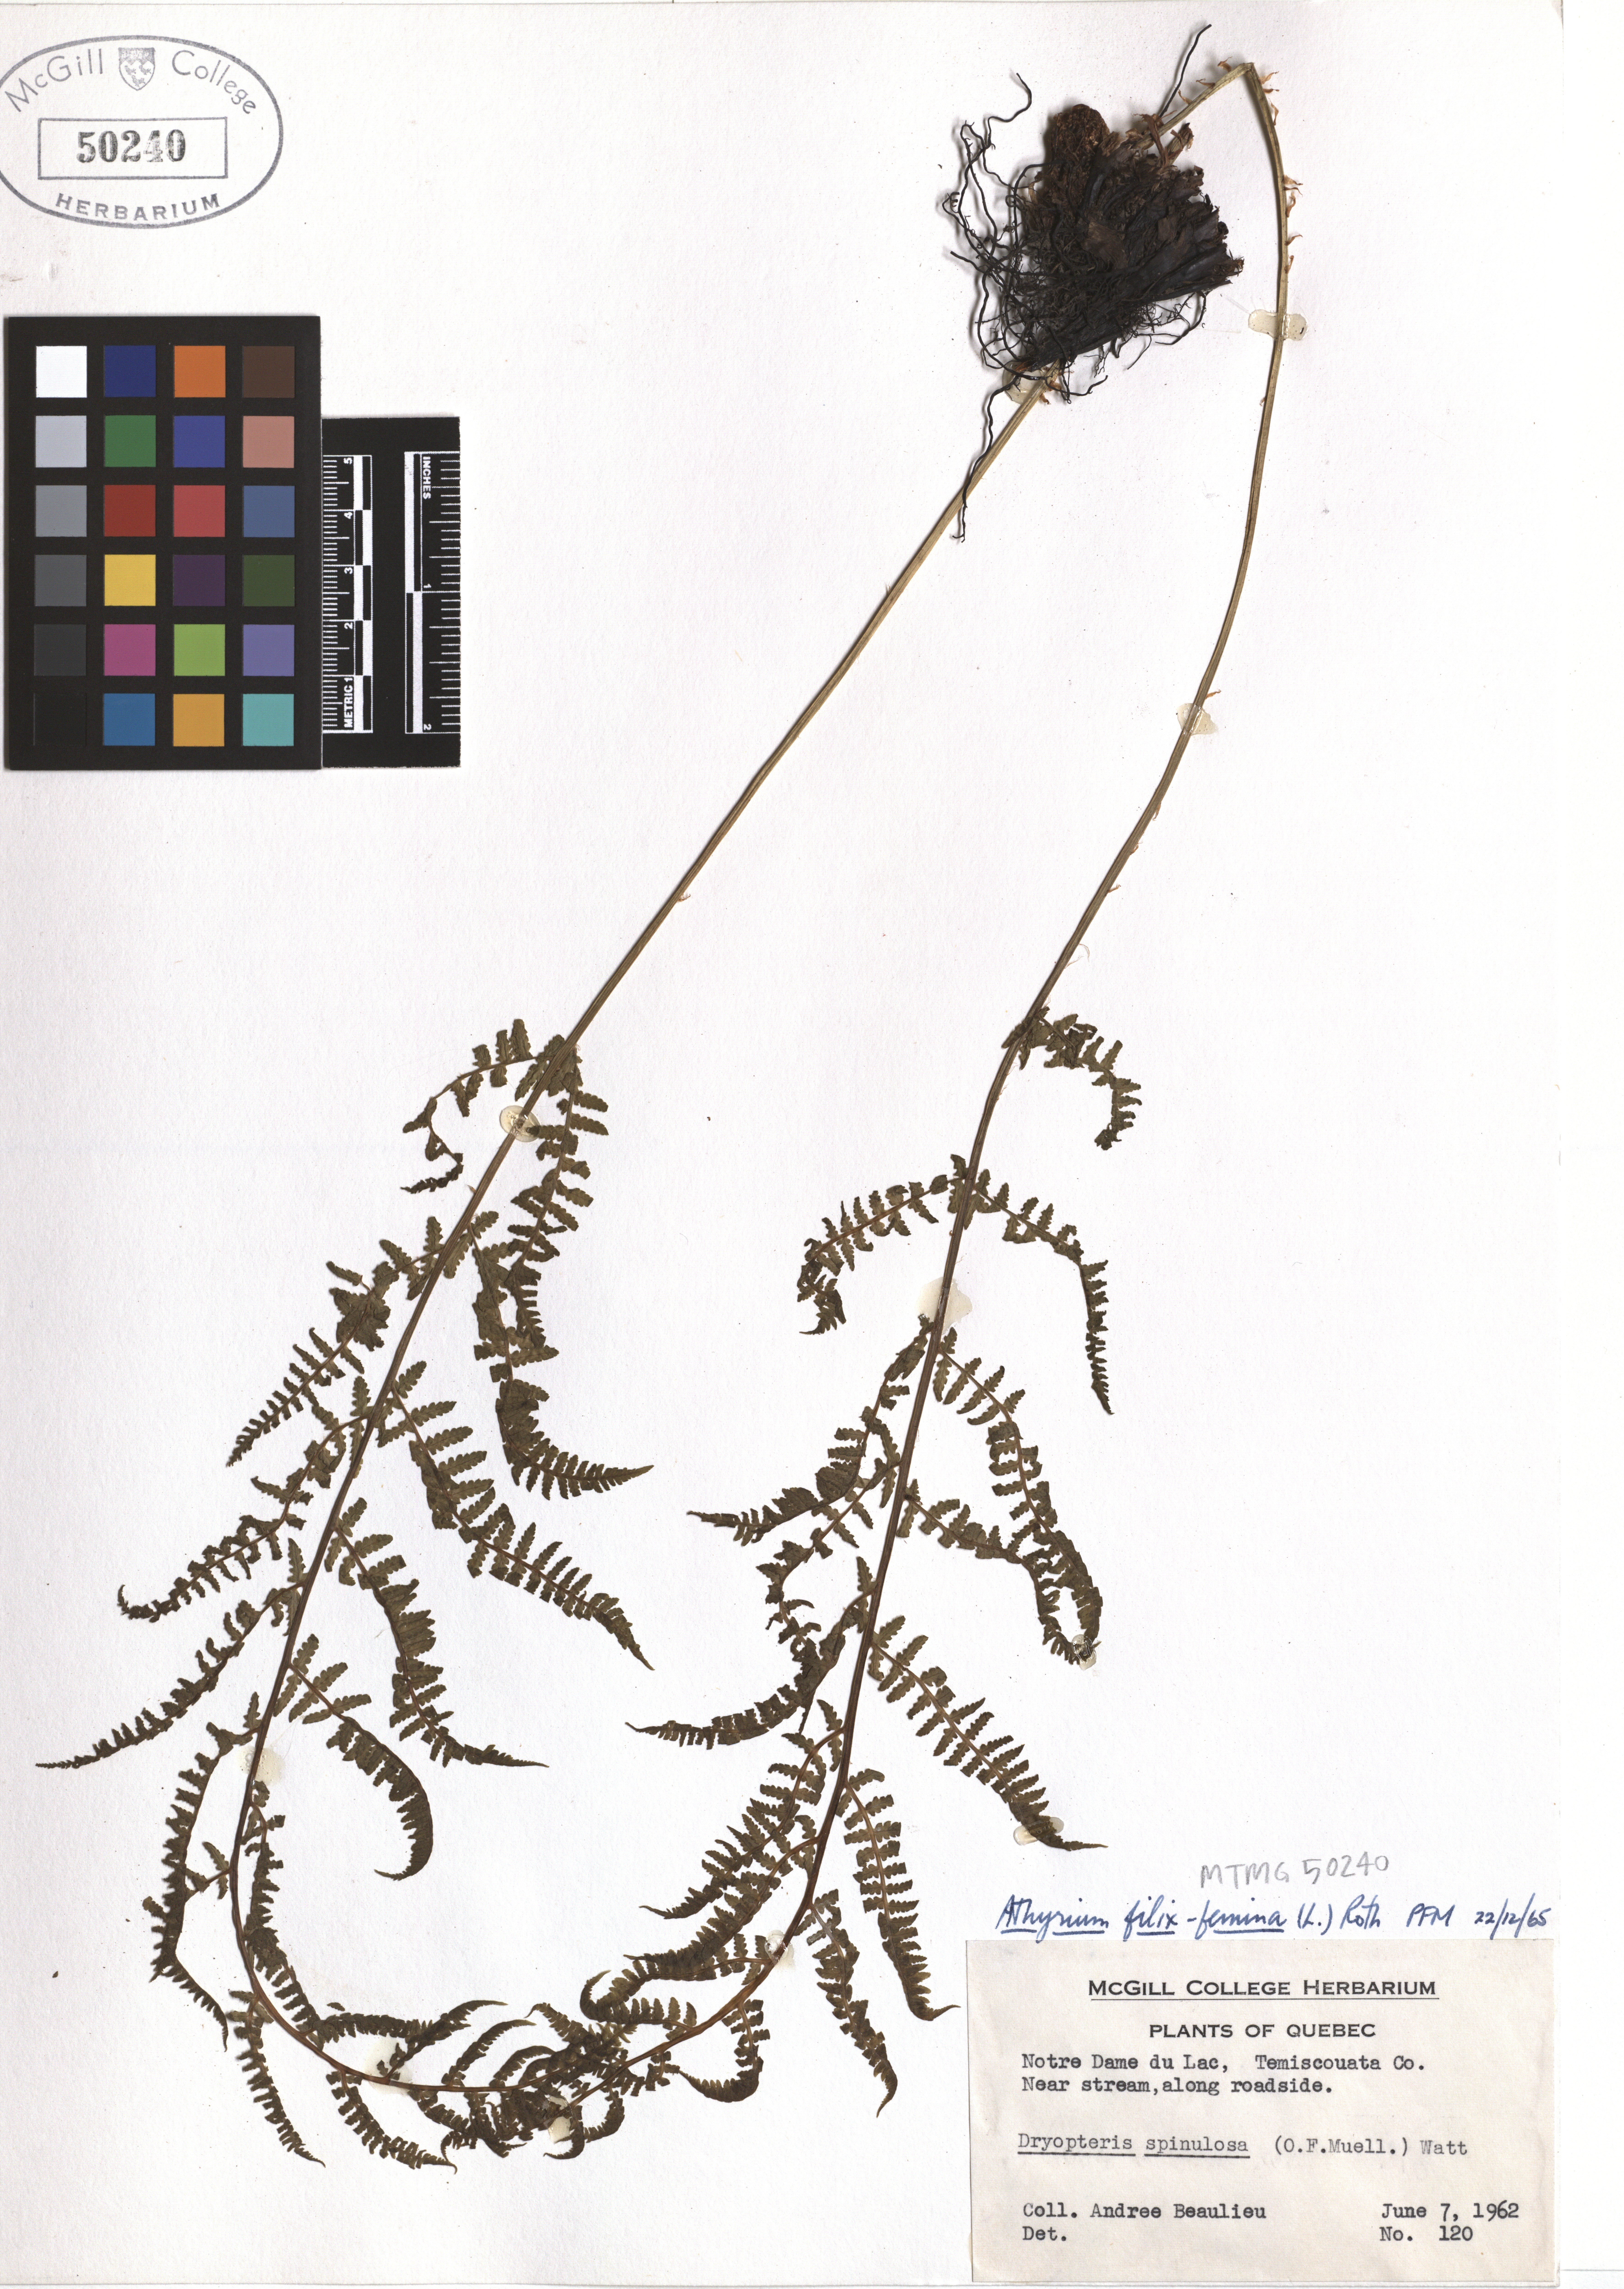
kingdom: Plantae
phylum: Tracheophyta
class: Polypodiopsida
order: Polypodiales
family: Athyriaceae
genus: Athyrium
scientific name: Athyrium filix-femina
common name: Lady fern
